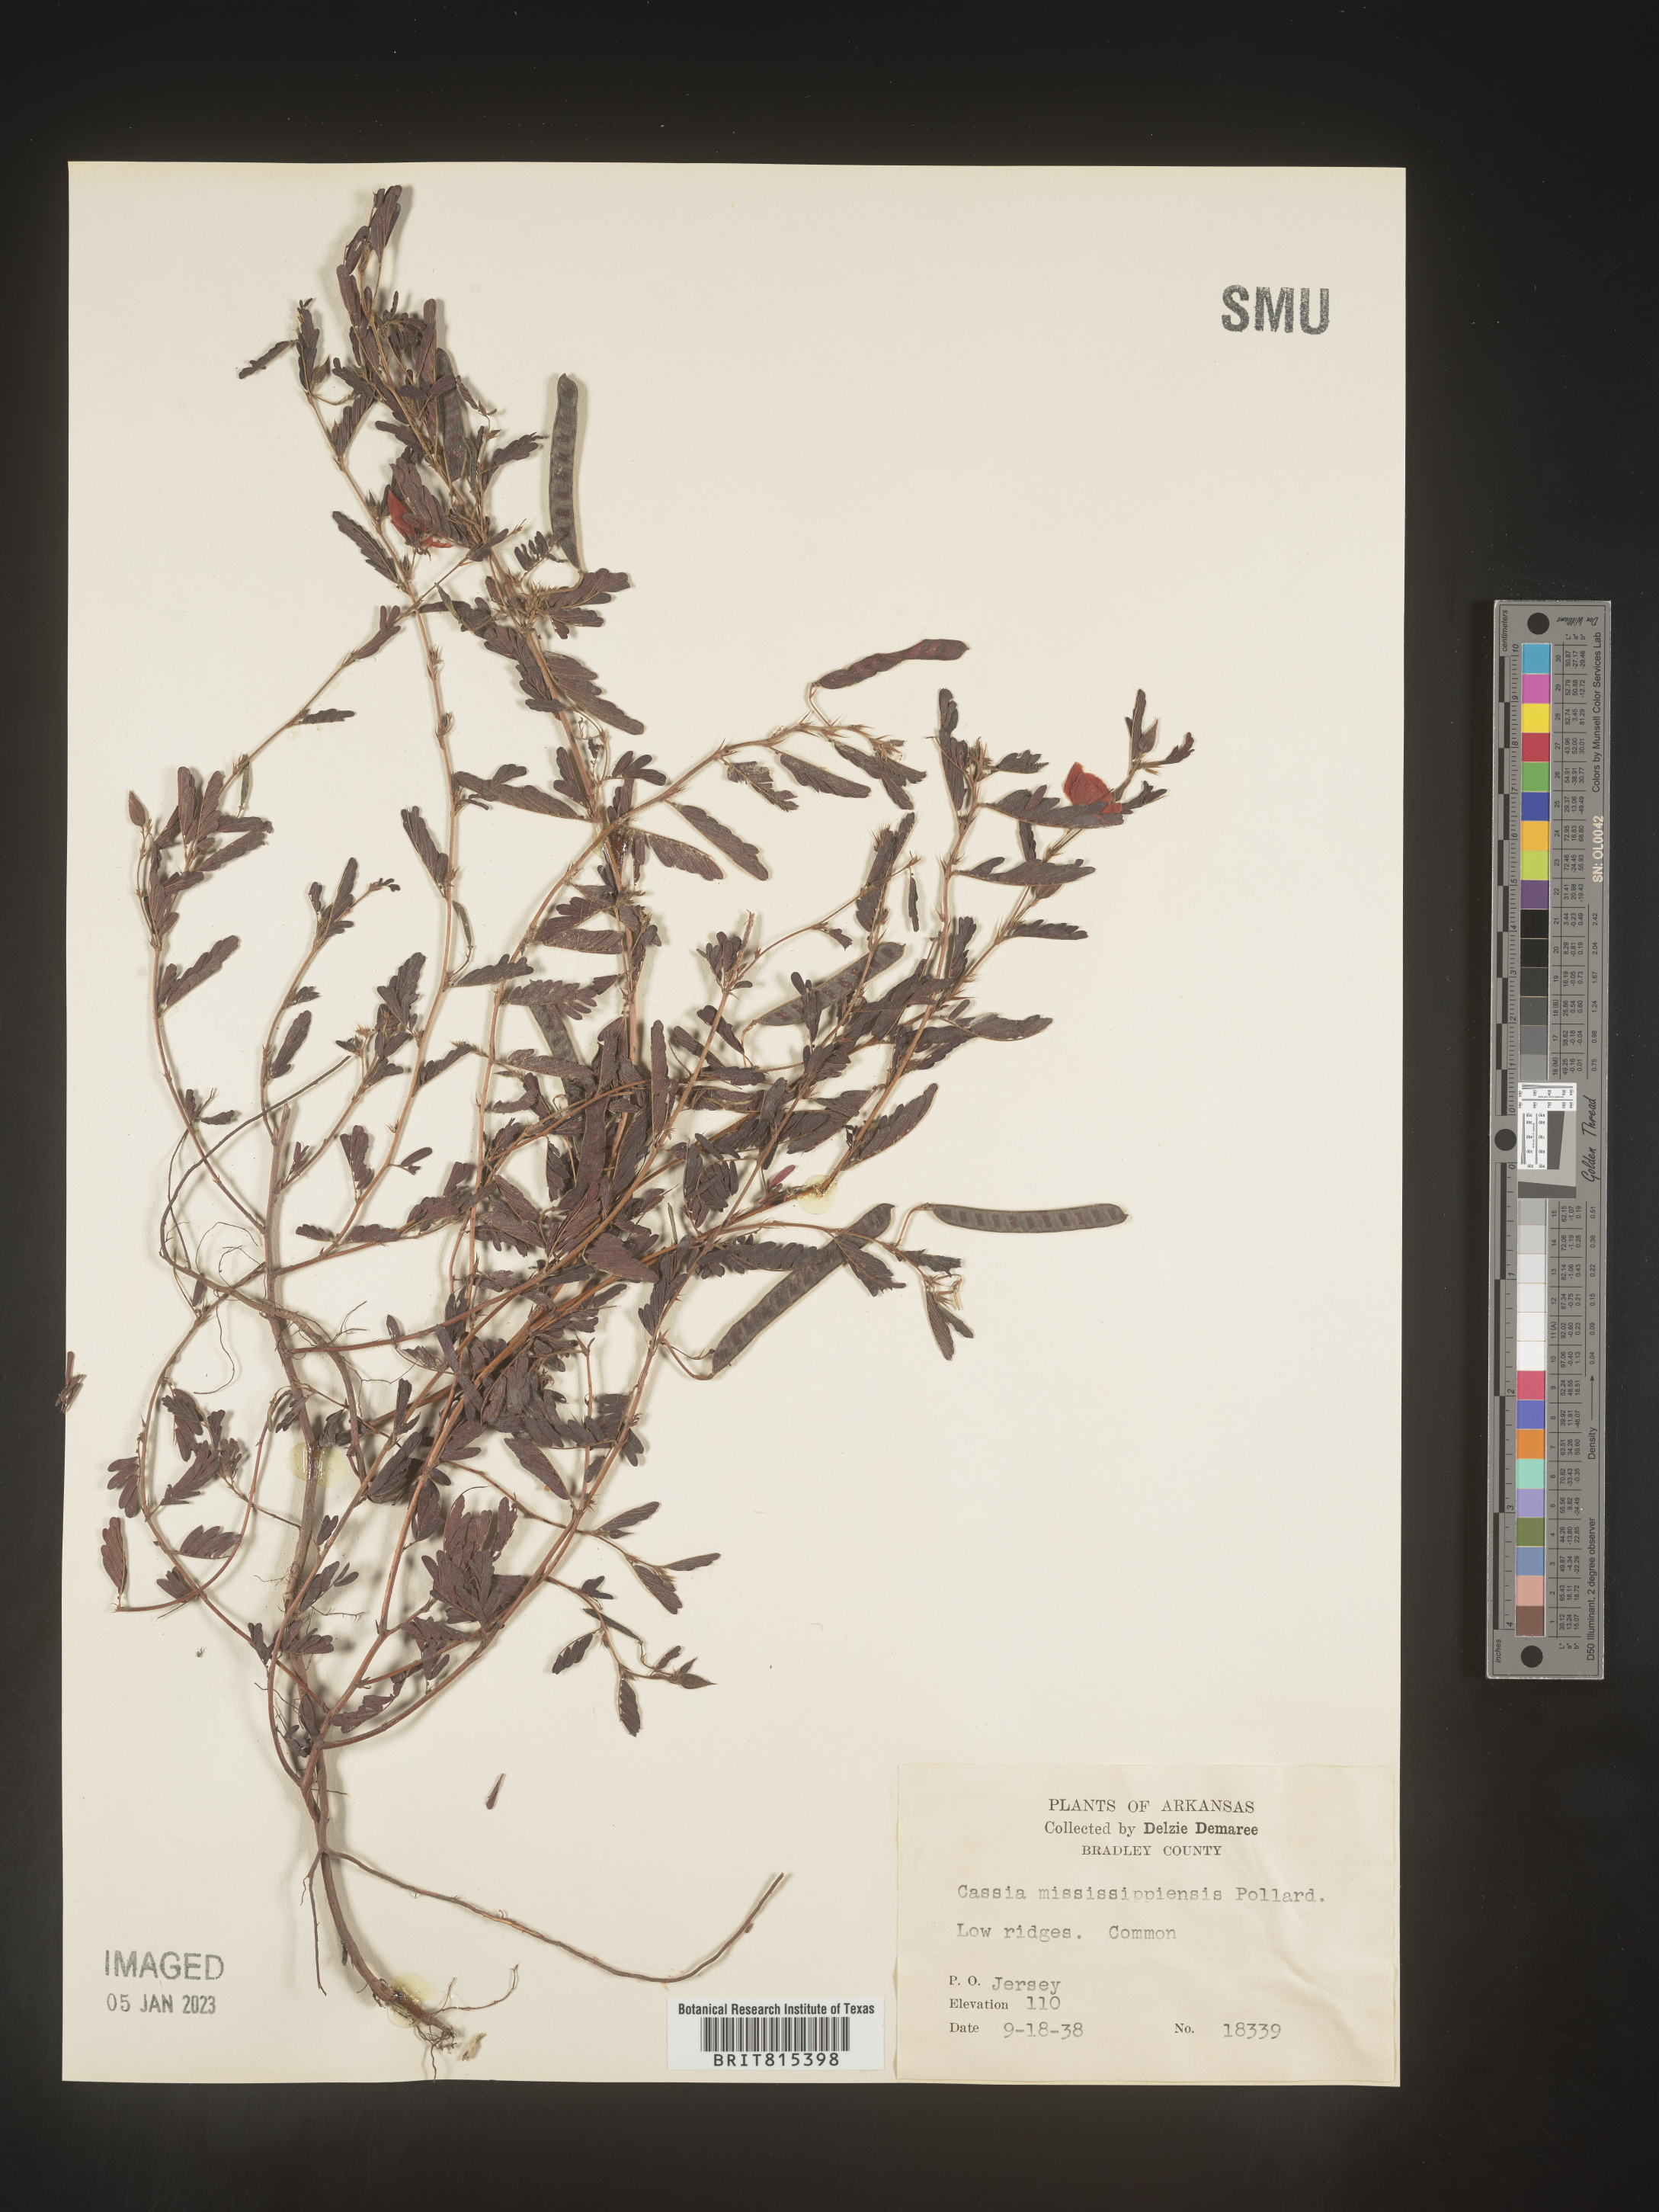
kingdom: Plantae
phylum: Tracheophyta
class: Magnoliopsida
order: Fabales
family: Fabaceae
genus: Cassia
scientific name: Cassia
